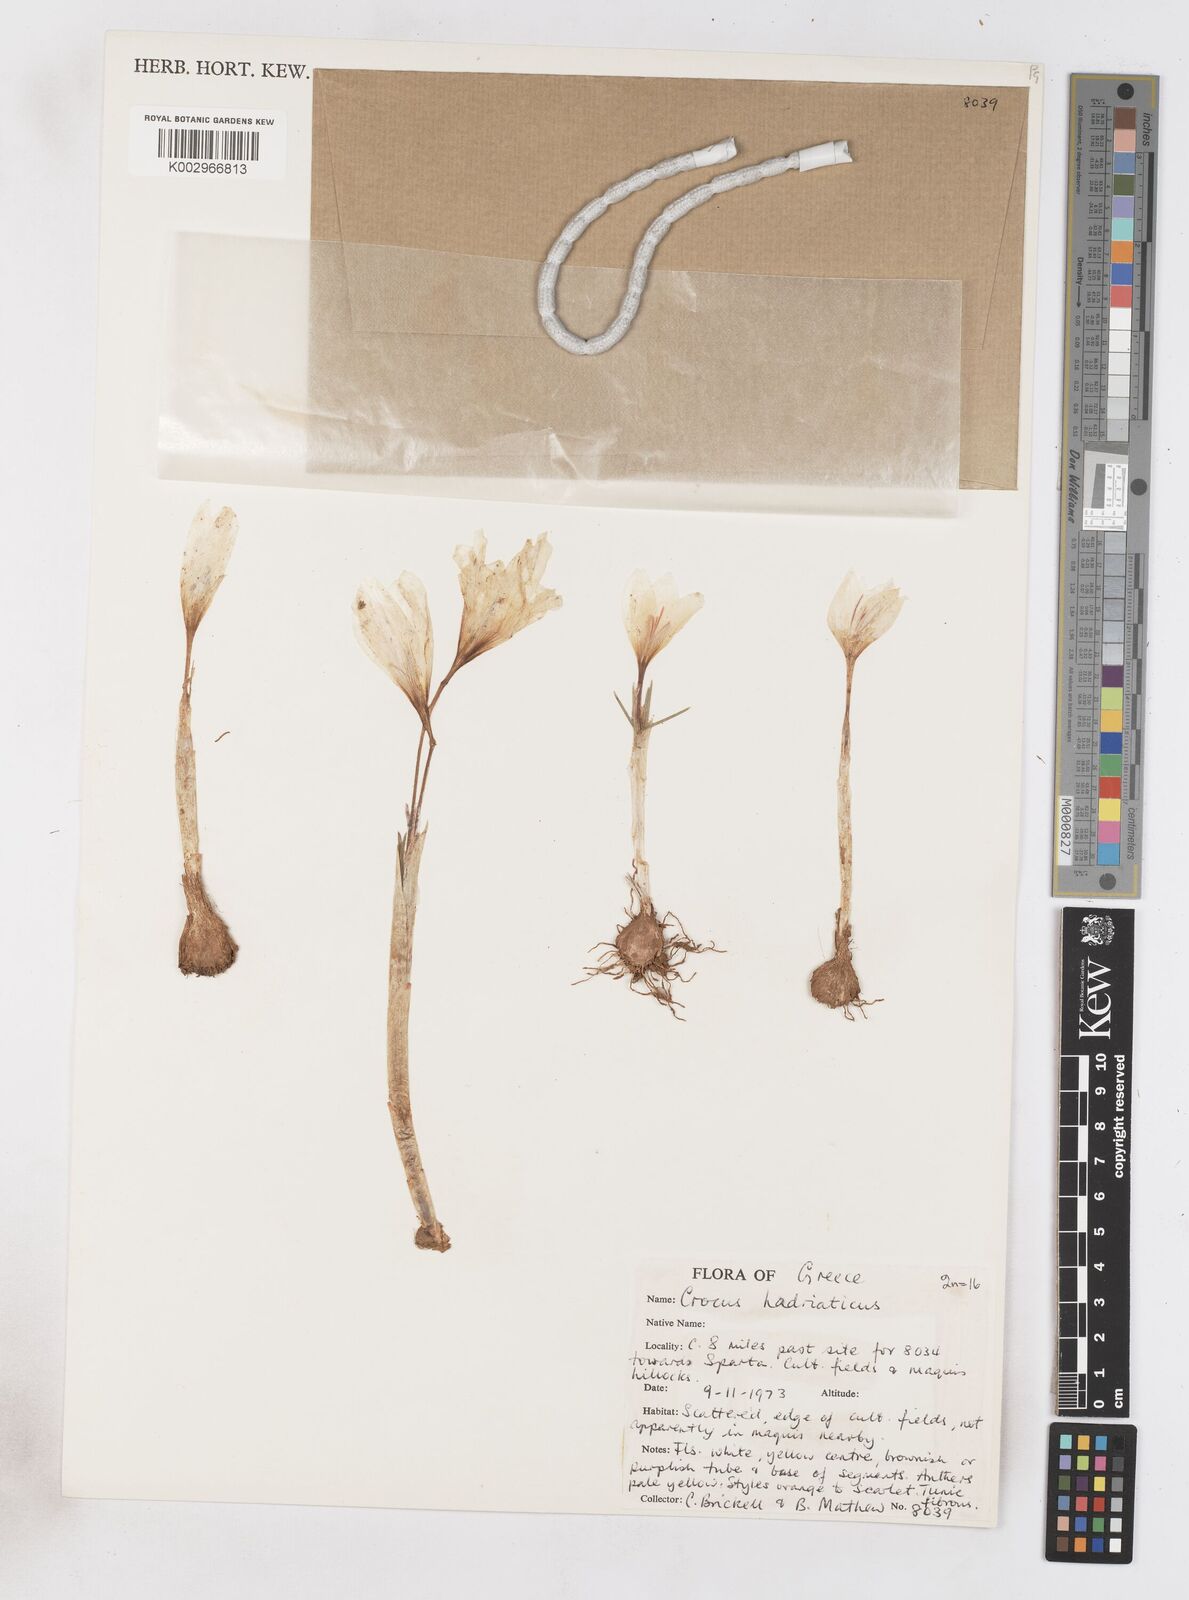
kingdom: Plantae
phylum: Tracheophyta
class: Liliopsida
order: Asparagales
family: Iridaceae
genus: Crocus
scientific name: Crocus hadriaticus
